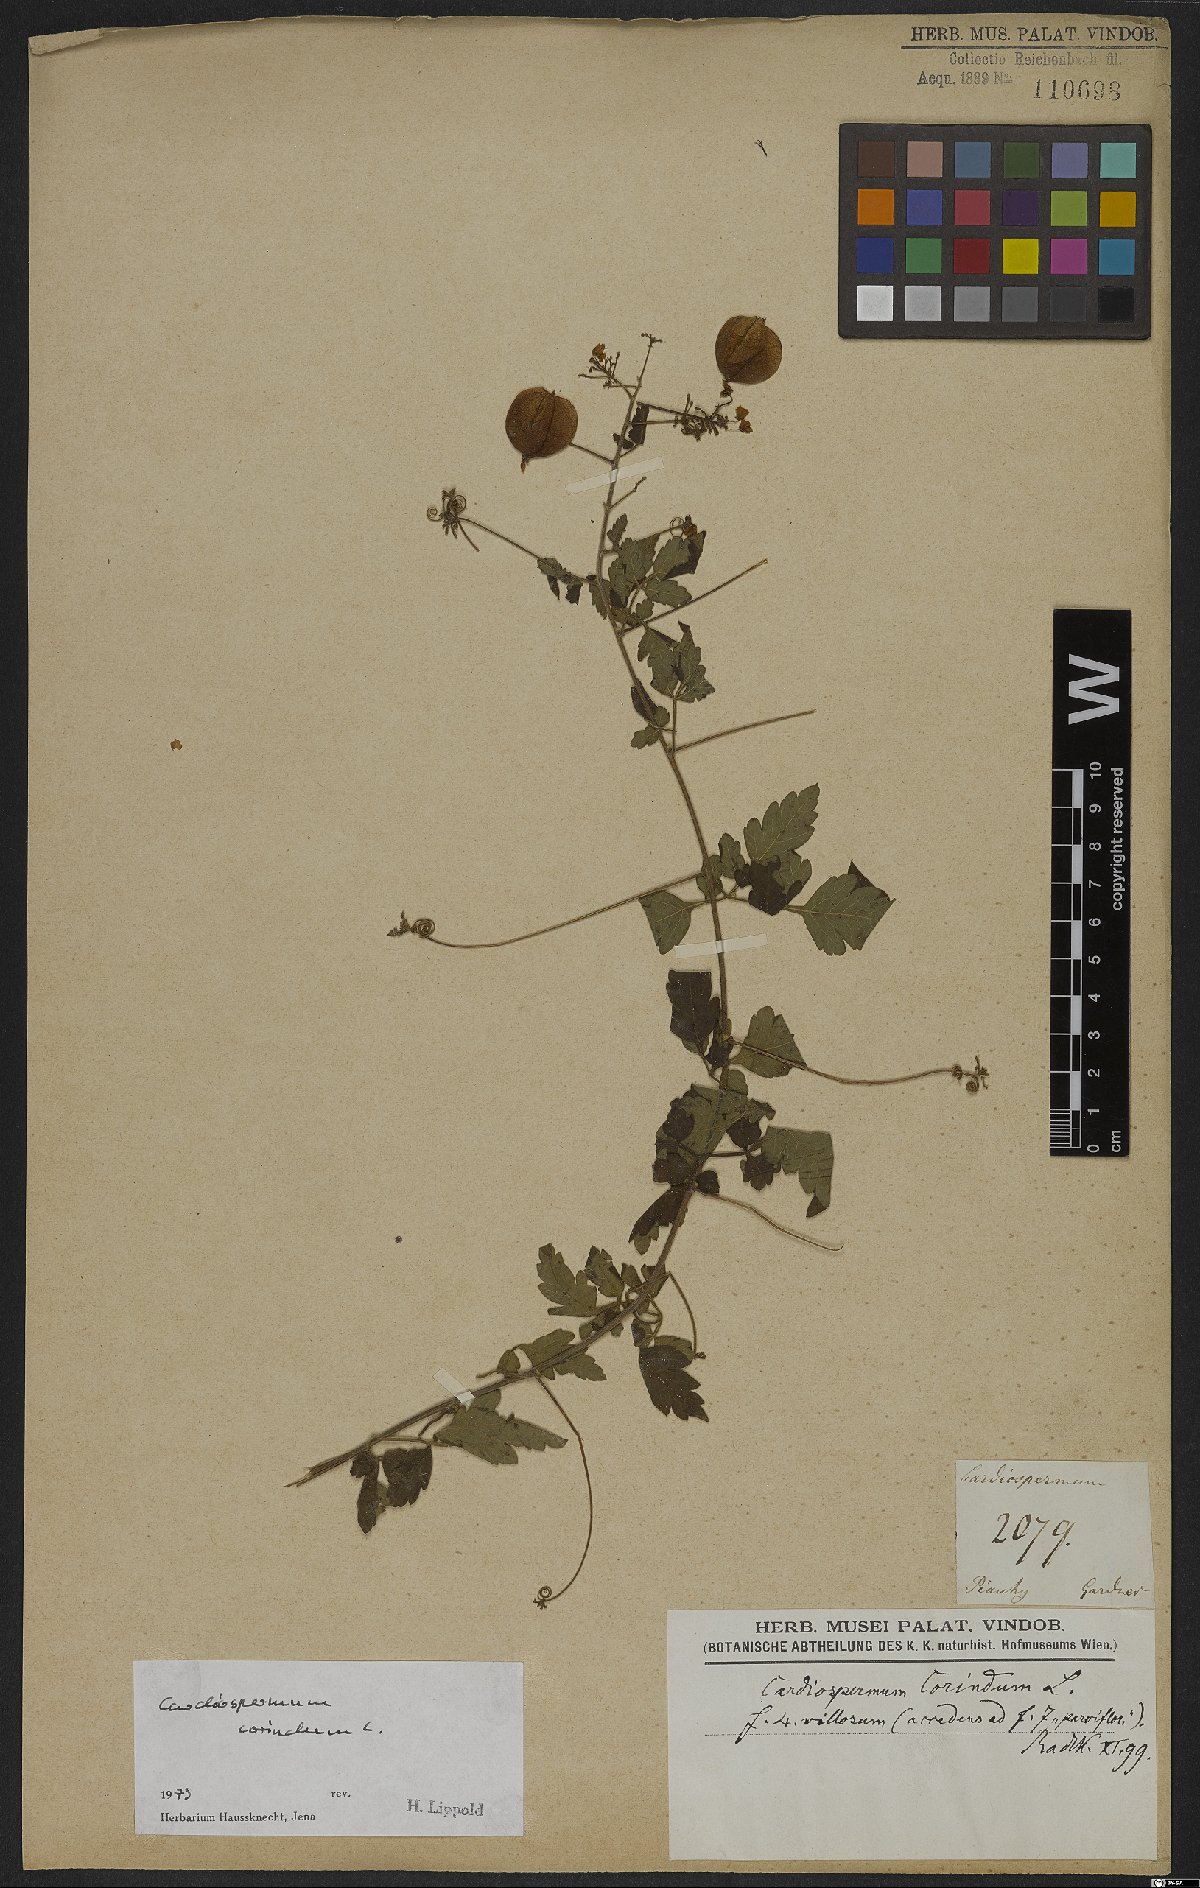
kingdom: Plantae
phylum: Tracheophyta
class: Magnoliopsida
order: Sapindales
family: Sapindaceae
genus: Cardiospermum
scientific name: Cardiospermum corindum
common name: Faux persil
